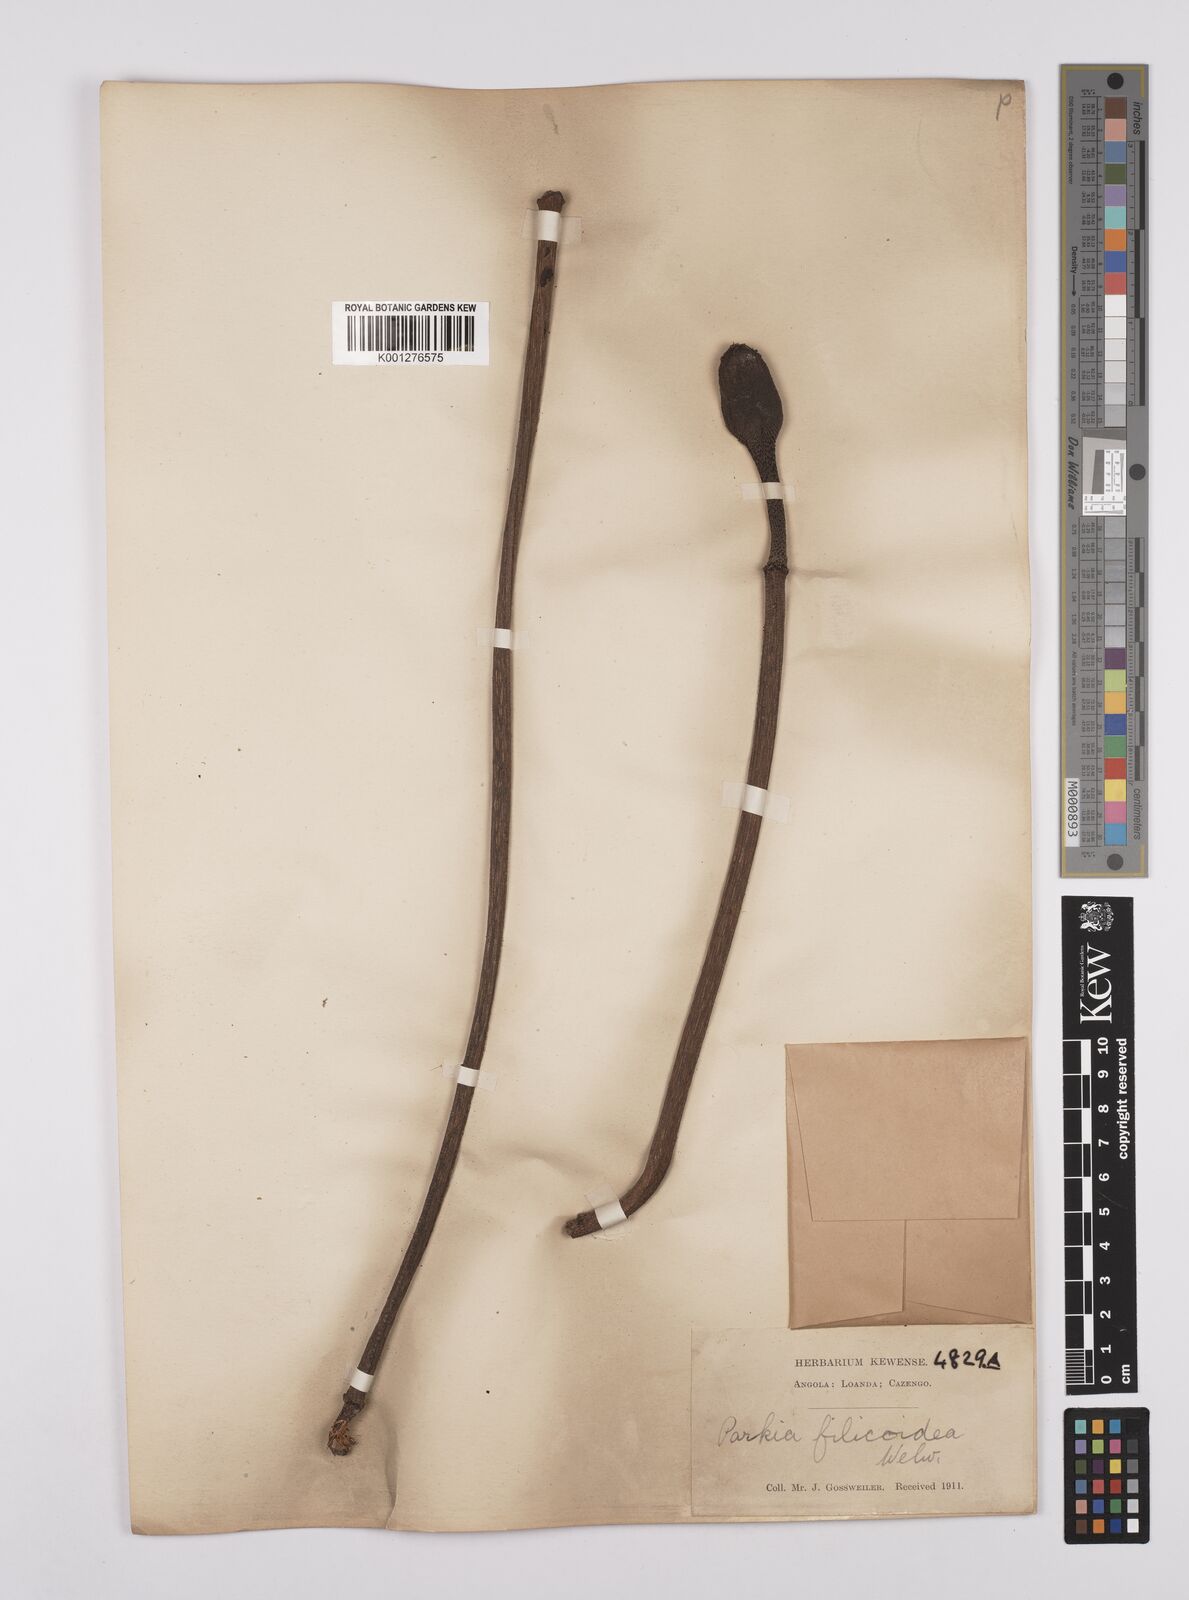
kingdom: Plantae
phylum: Tracheophyta
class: Magnoliopsida
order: Fabales
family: Fabaceae
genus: Parkia
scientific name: Parkia filicoidea
